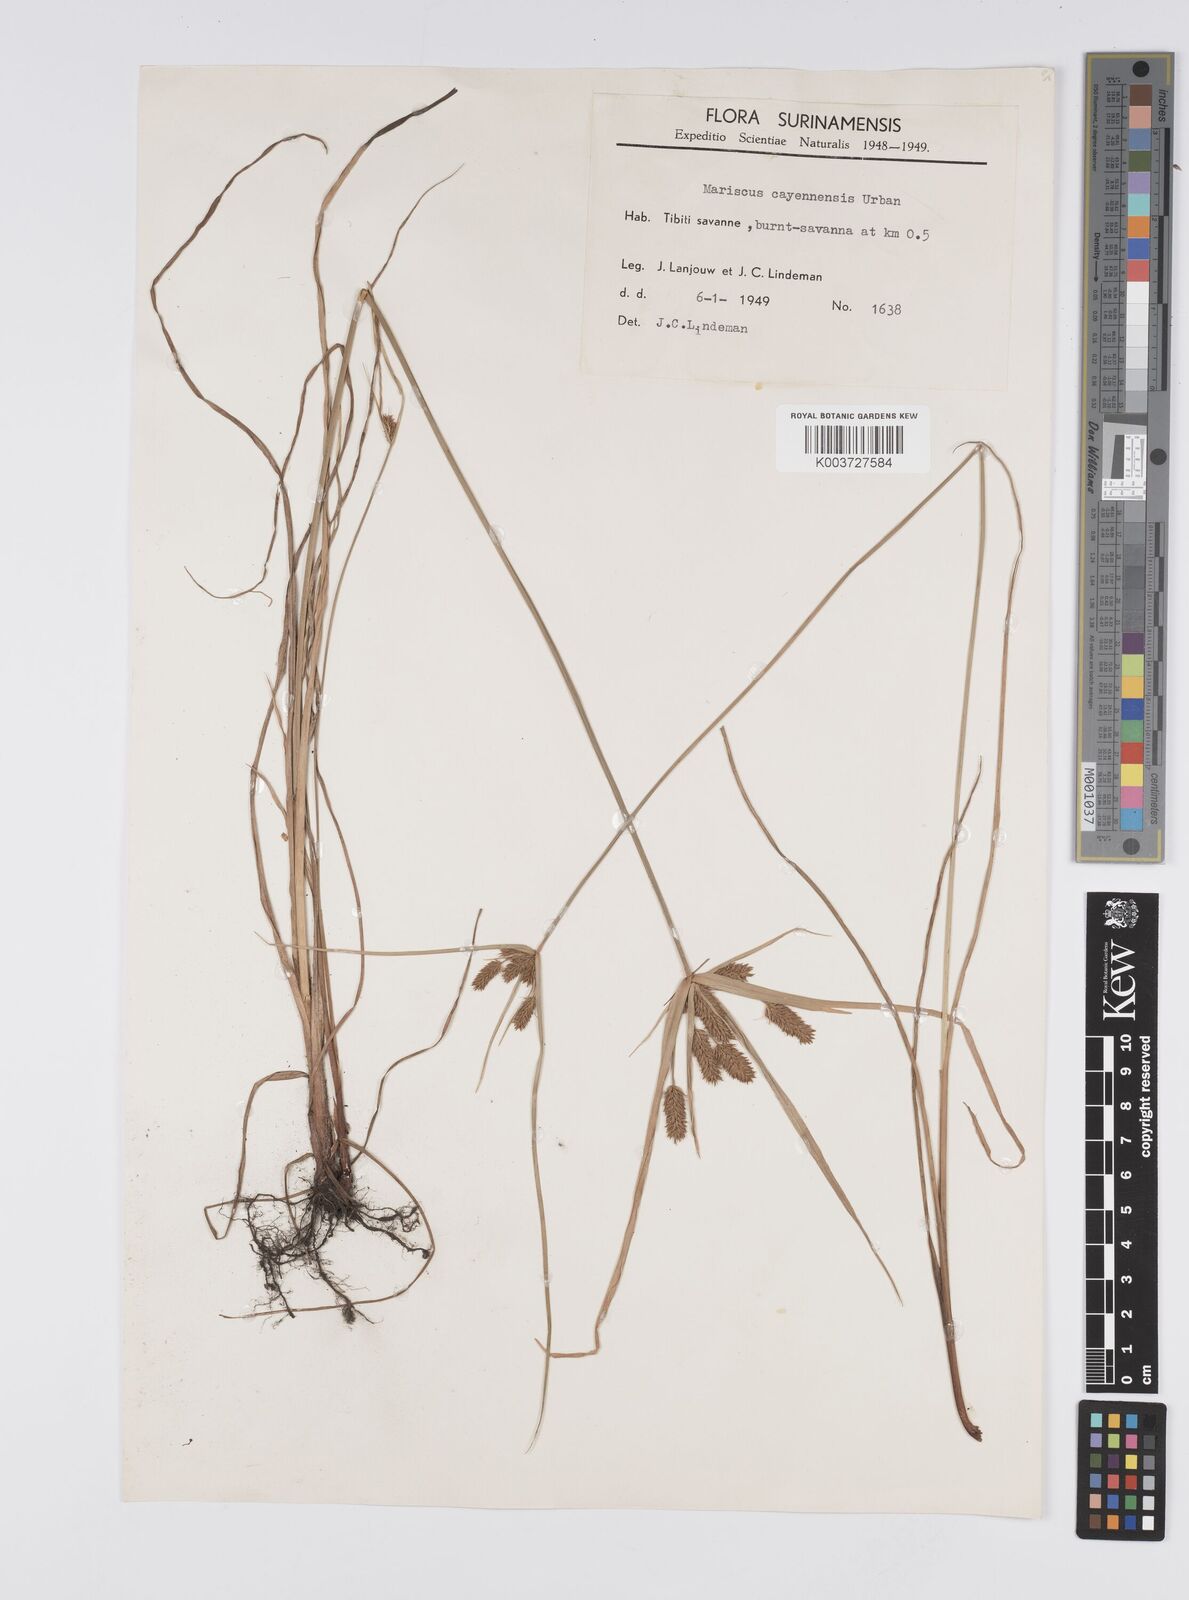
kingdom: Plantae
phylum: Tracheophyta
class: Liliopsida
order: Poales
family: Cyperaceae
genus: Cyperus
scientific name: Cyperus aggregatus
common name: Inflatedscale flatsedge
